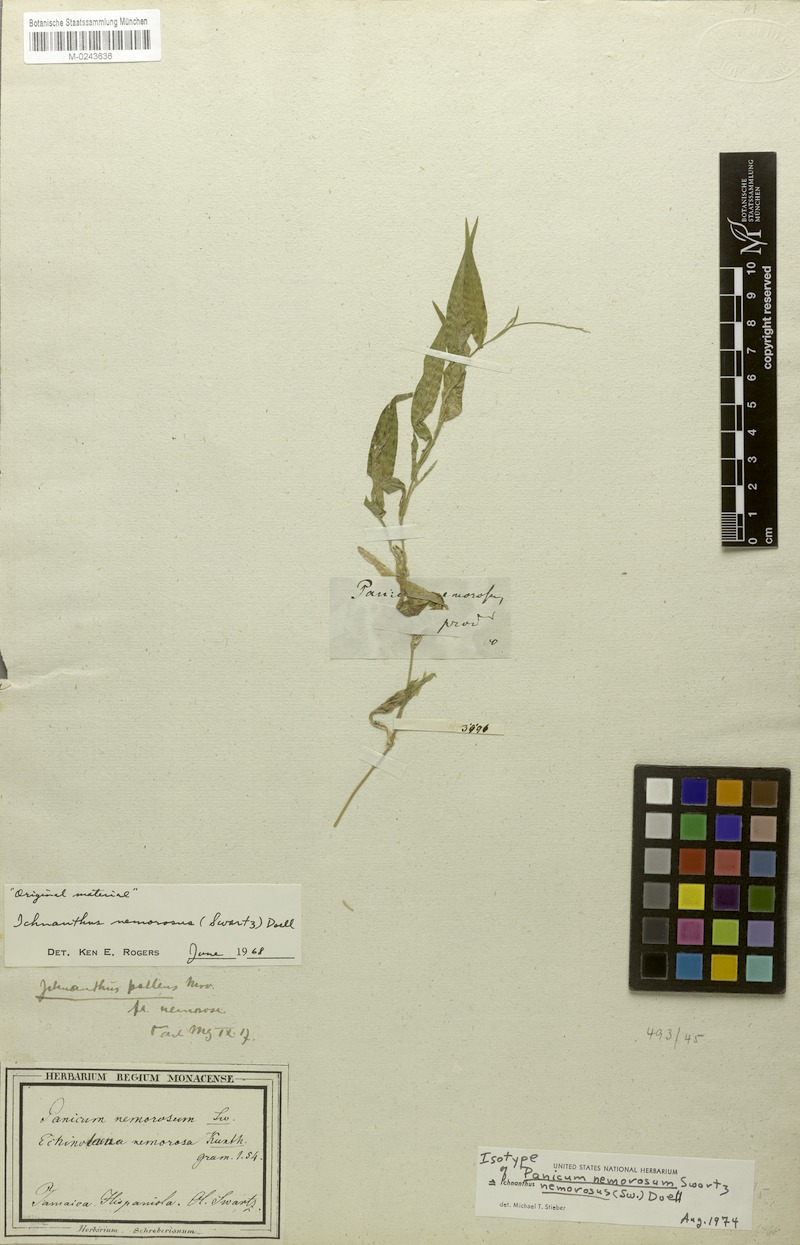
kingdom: Plantae
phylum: Tracheophyta
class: Liliopsida
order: Poales
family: Poaceae
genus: Ichnanthus
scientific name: Ichnanthus nemorosus
